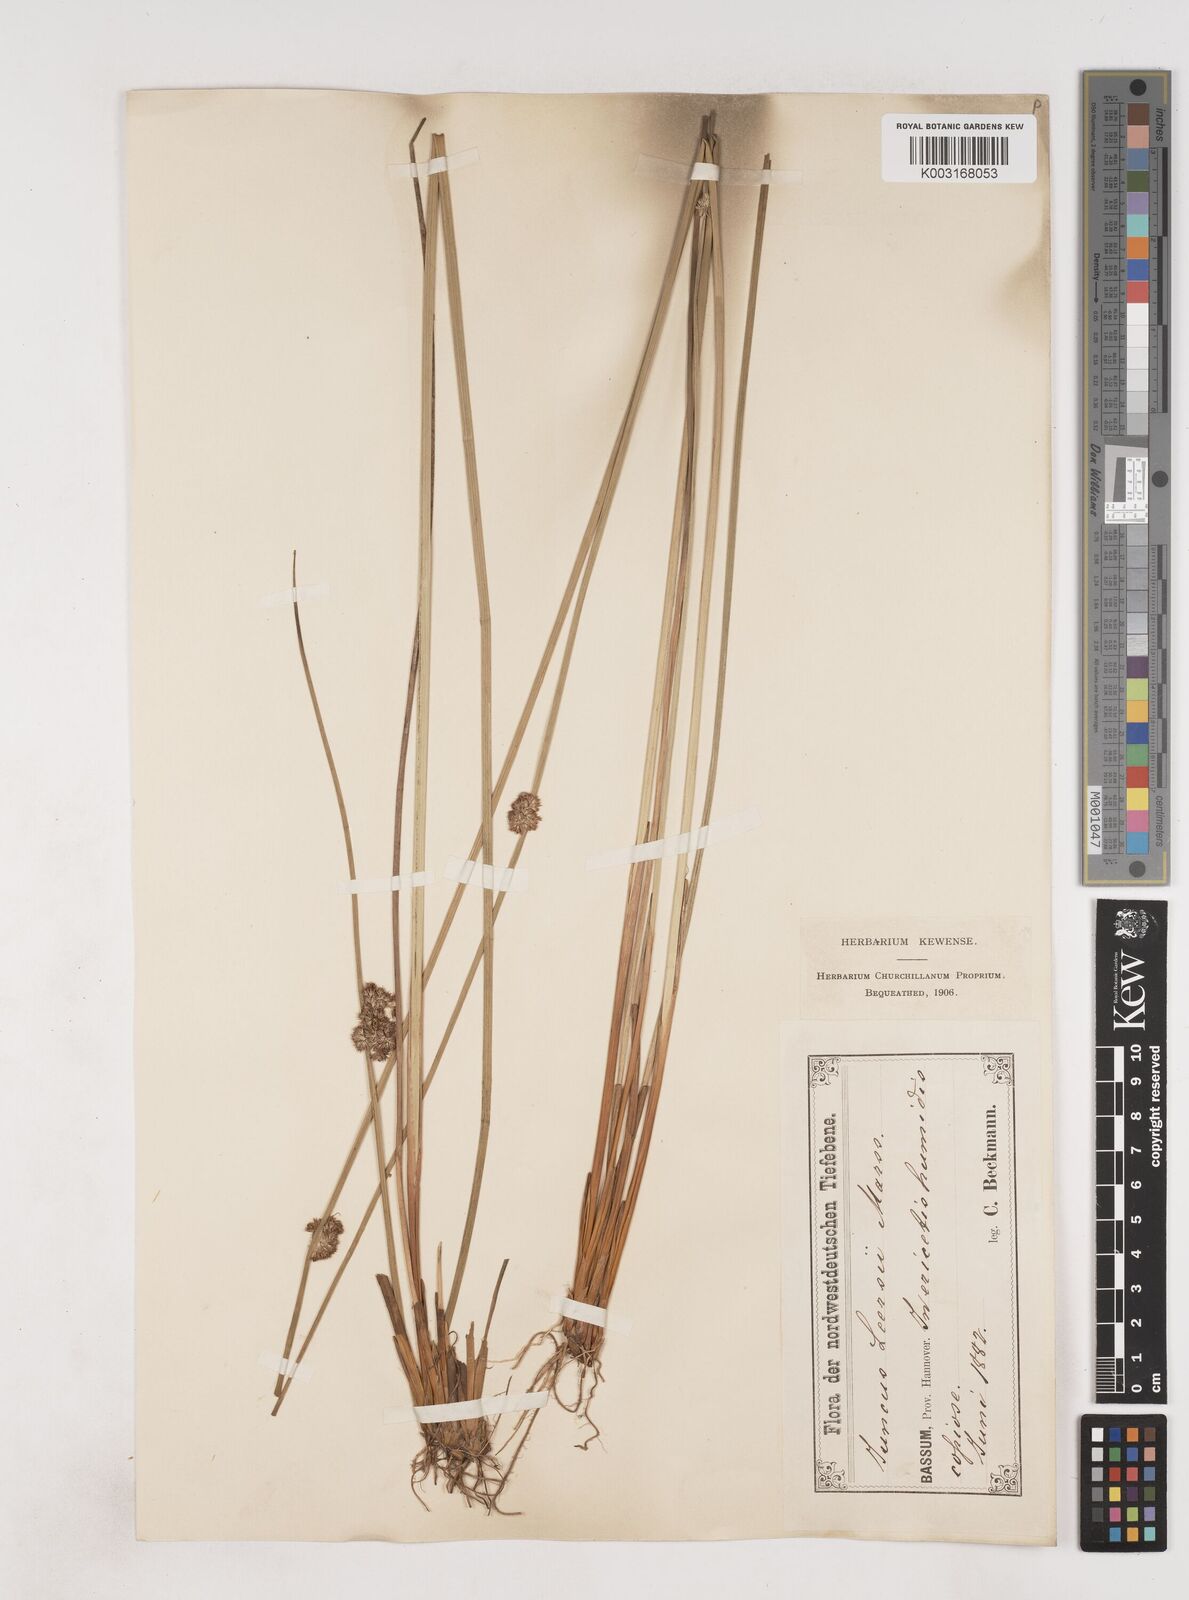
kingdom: Plantae
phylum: Tracheophyta
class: Liliopsida
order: Poales
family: Juncaceae
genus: Juncus
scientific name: Juncus conglomeratus
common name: Compact rush
